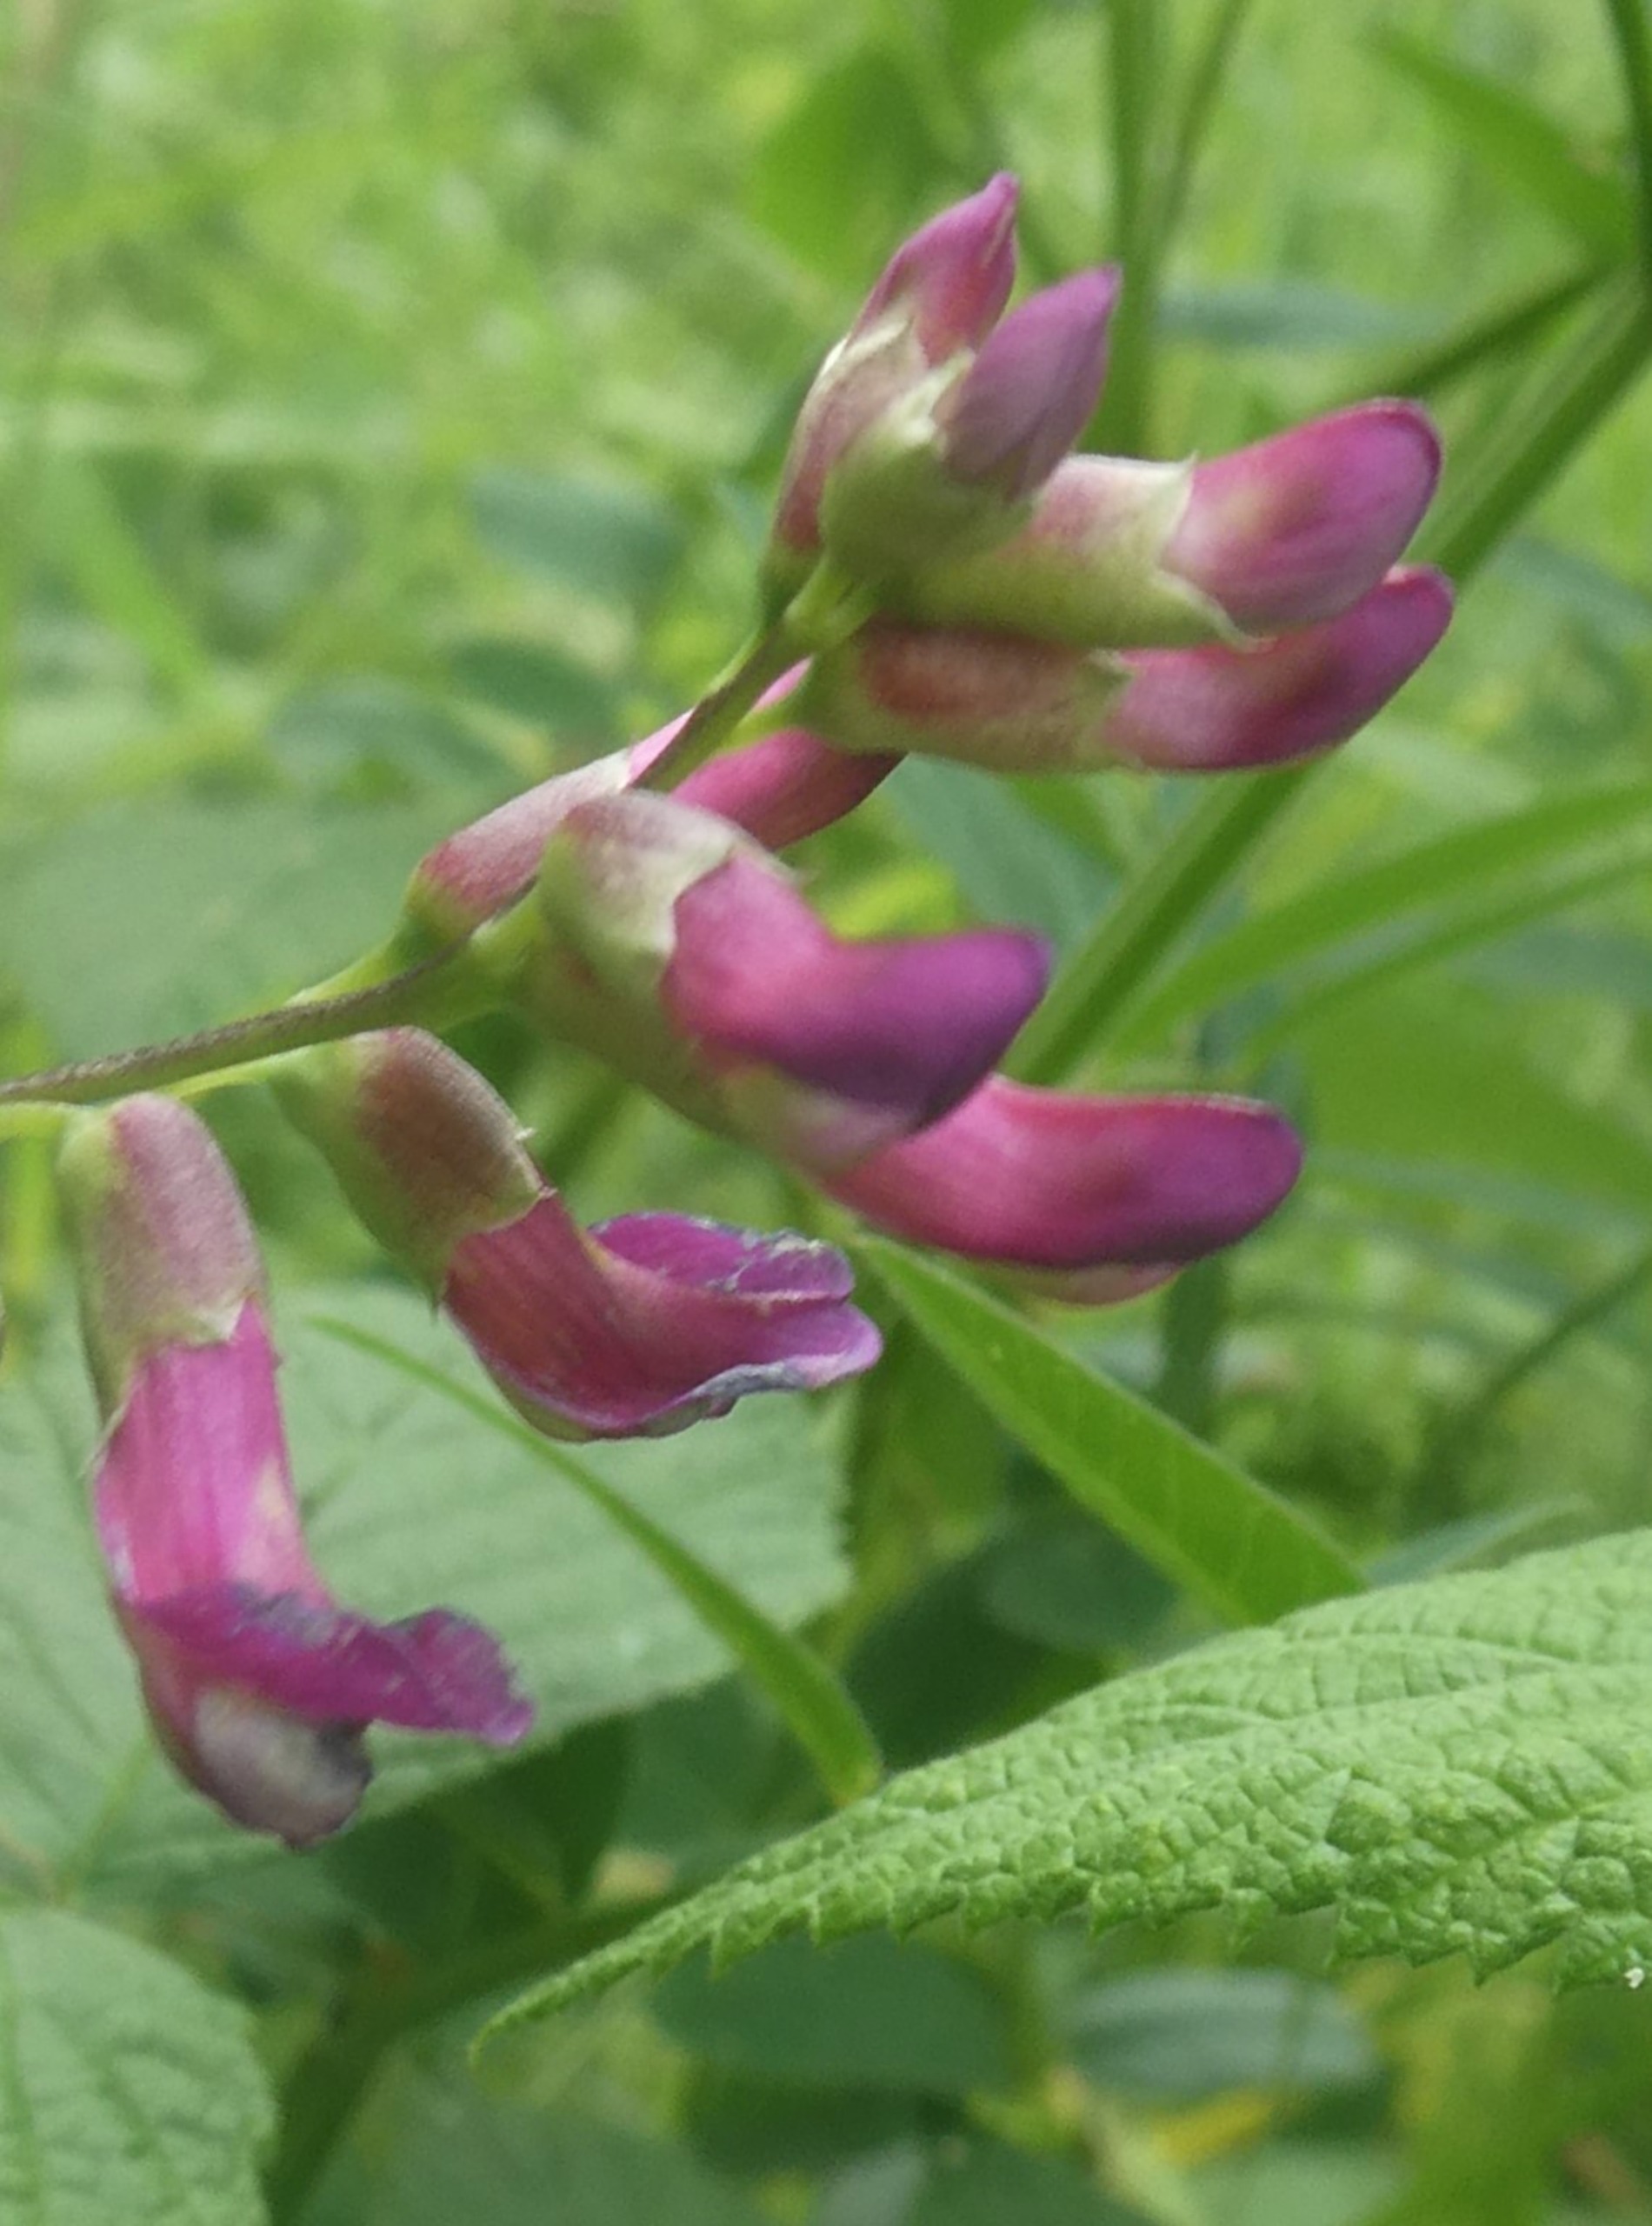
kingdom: Plantae
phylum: Tracheophyta
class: Magnoliopsida
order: Fabales
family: Fabaceae
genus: Vicia
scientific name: Vicia dumetorum
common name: Krat-vikke
